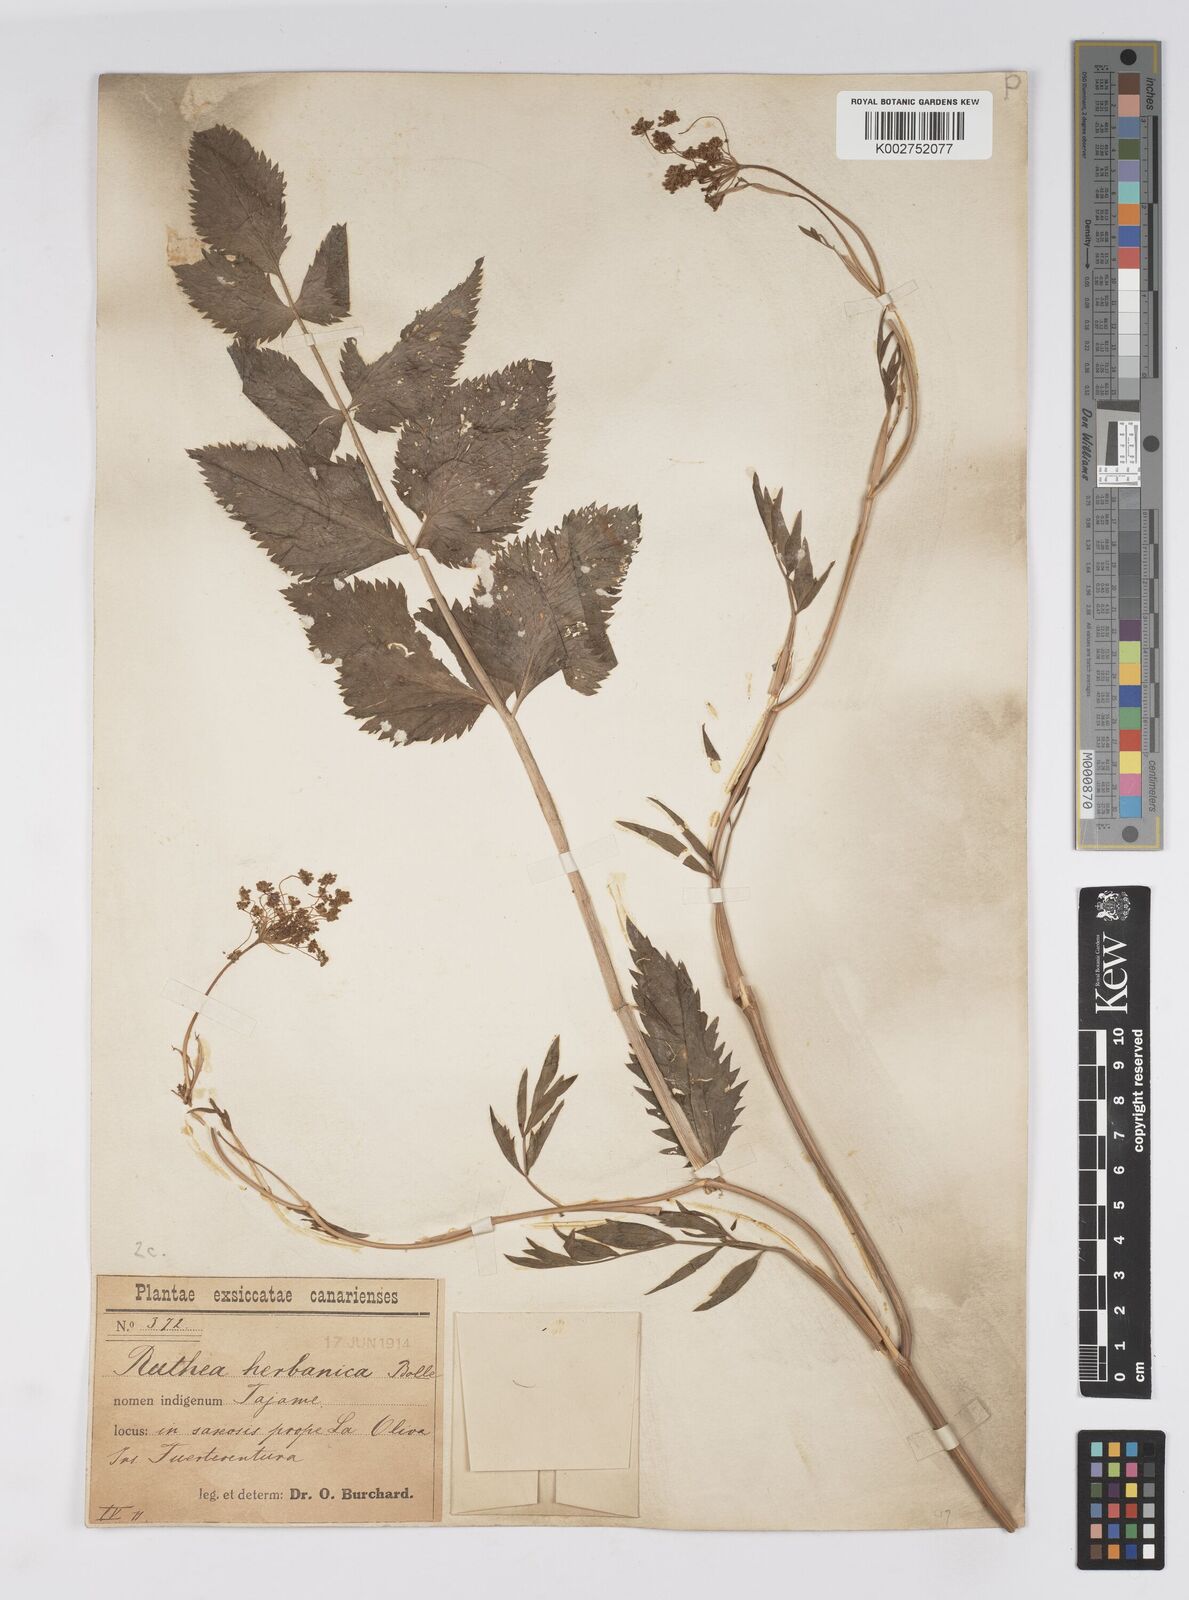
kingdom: Plantae
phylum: Tracheophyta
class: Magnoliopsida
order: Apiales
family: Apiaceae
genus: Rutheopsis
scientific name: Rutheopsis herbanica
